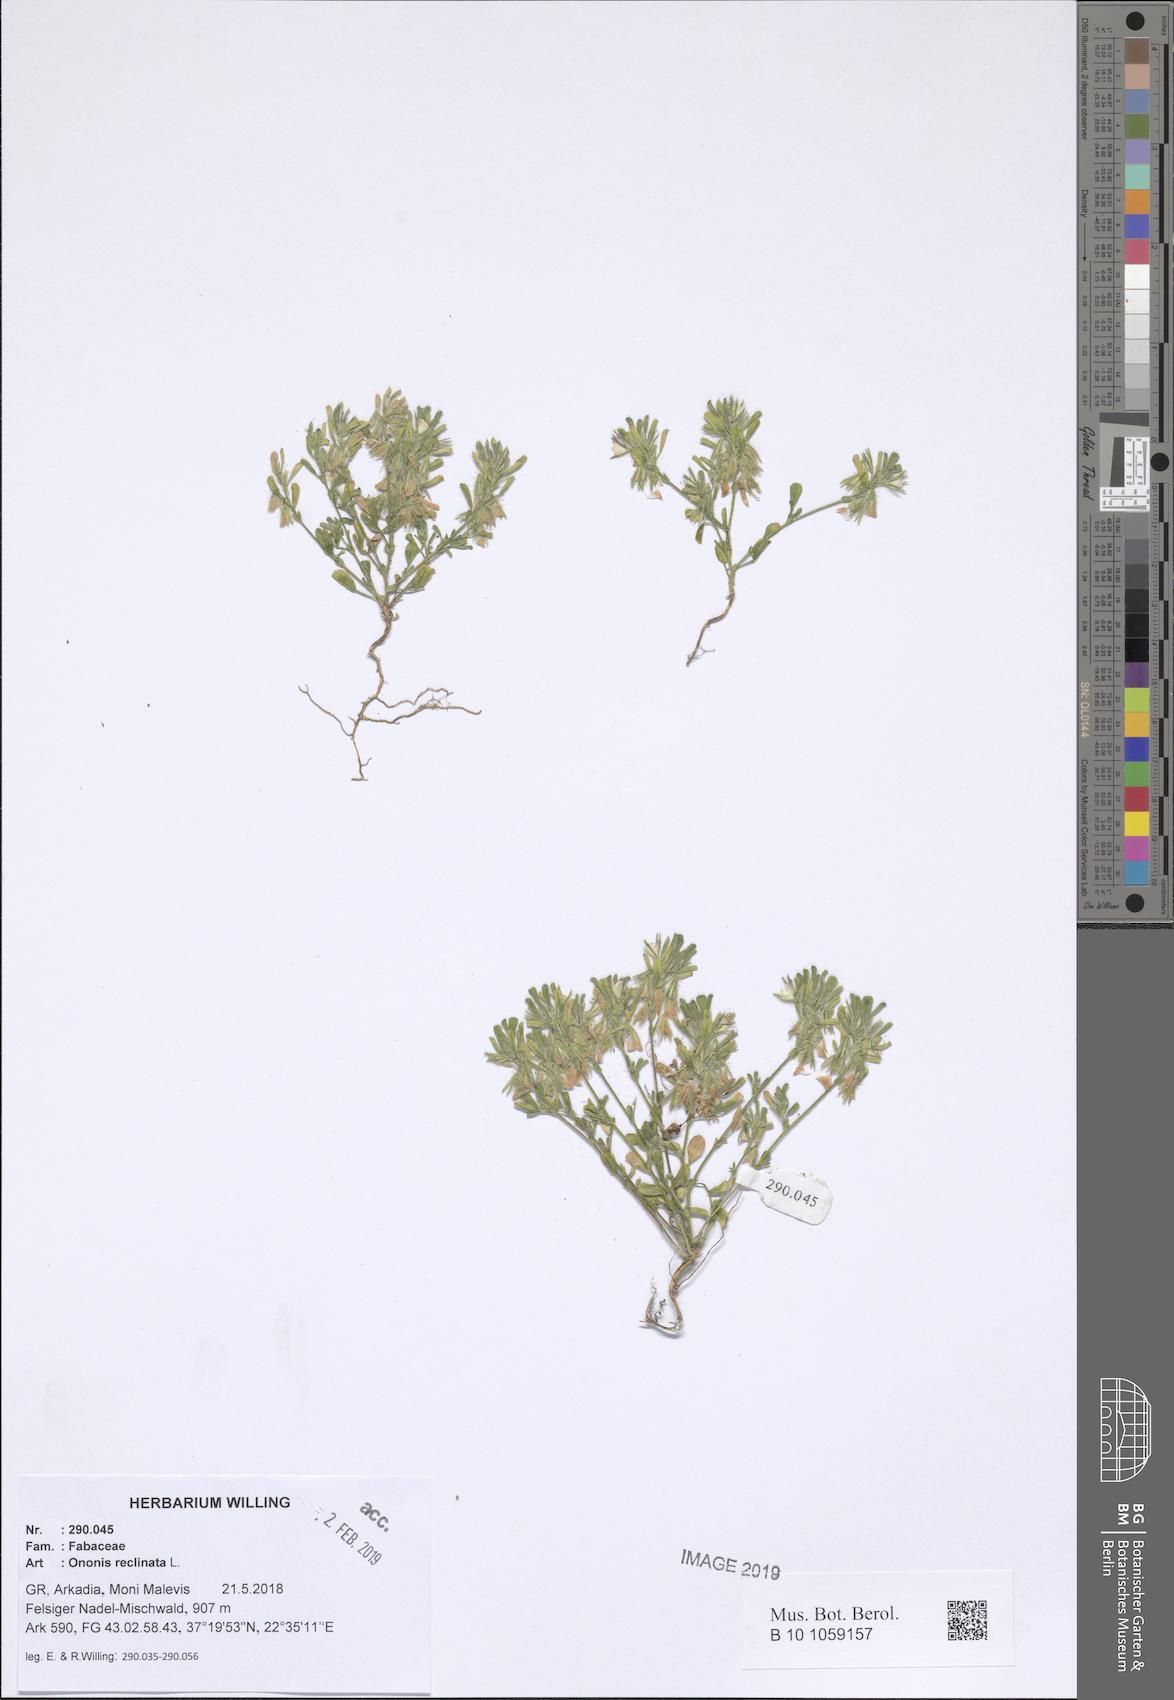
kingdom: Plantae
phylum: Tracheophyta
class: Magnoliopsida
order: Fabales
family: Fabaceae
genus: Ononis
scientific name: Ononis reclinata
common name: Small restharrow
